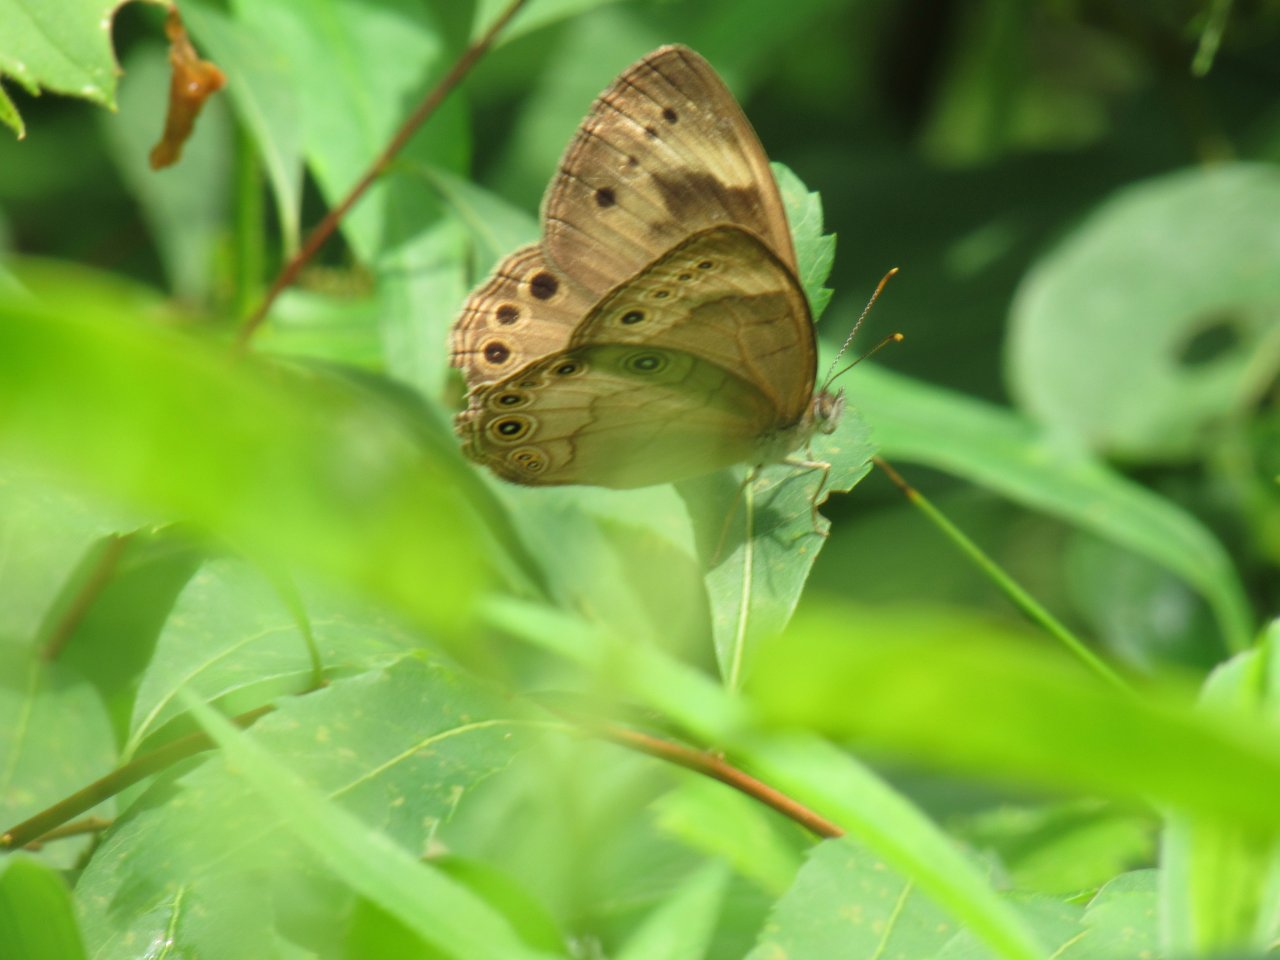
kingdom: Animalia
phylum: Arthropoda
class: Insecta
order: Lepidoptera
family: Nymphalidae
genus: Lethe
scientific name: Lethe eurydice
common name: Appalachian Eyed Brown
